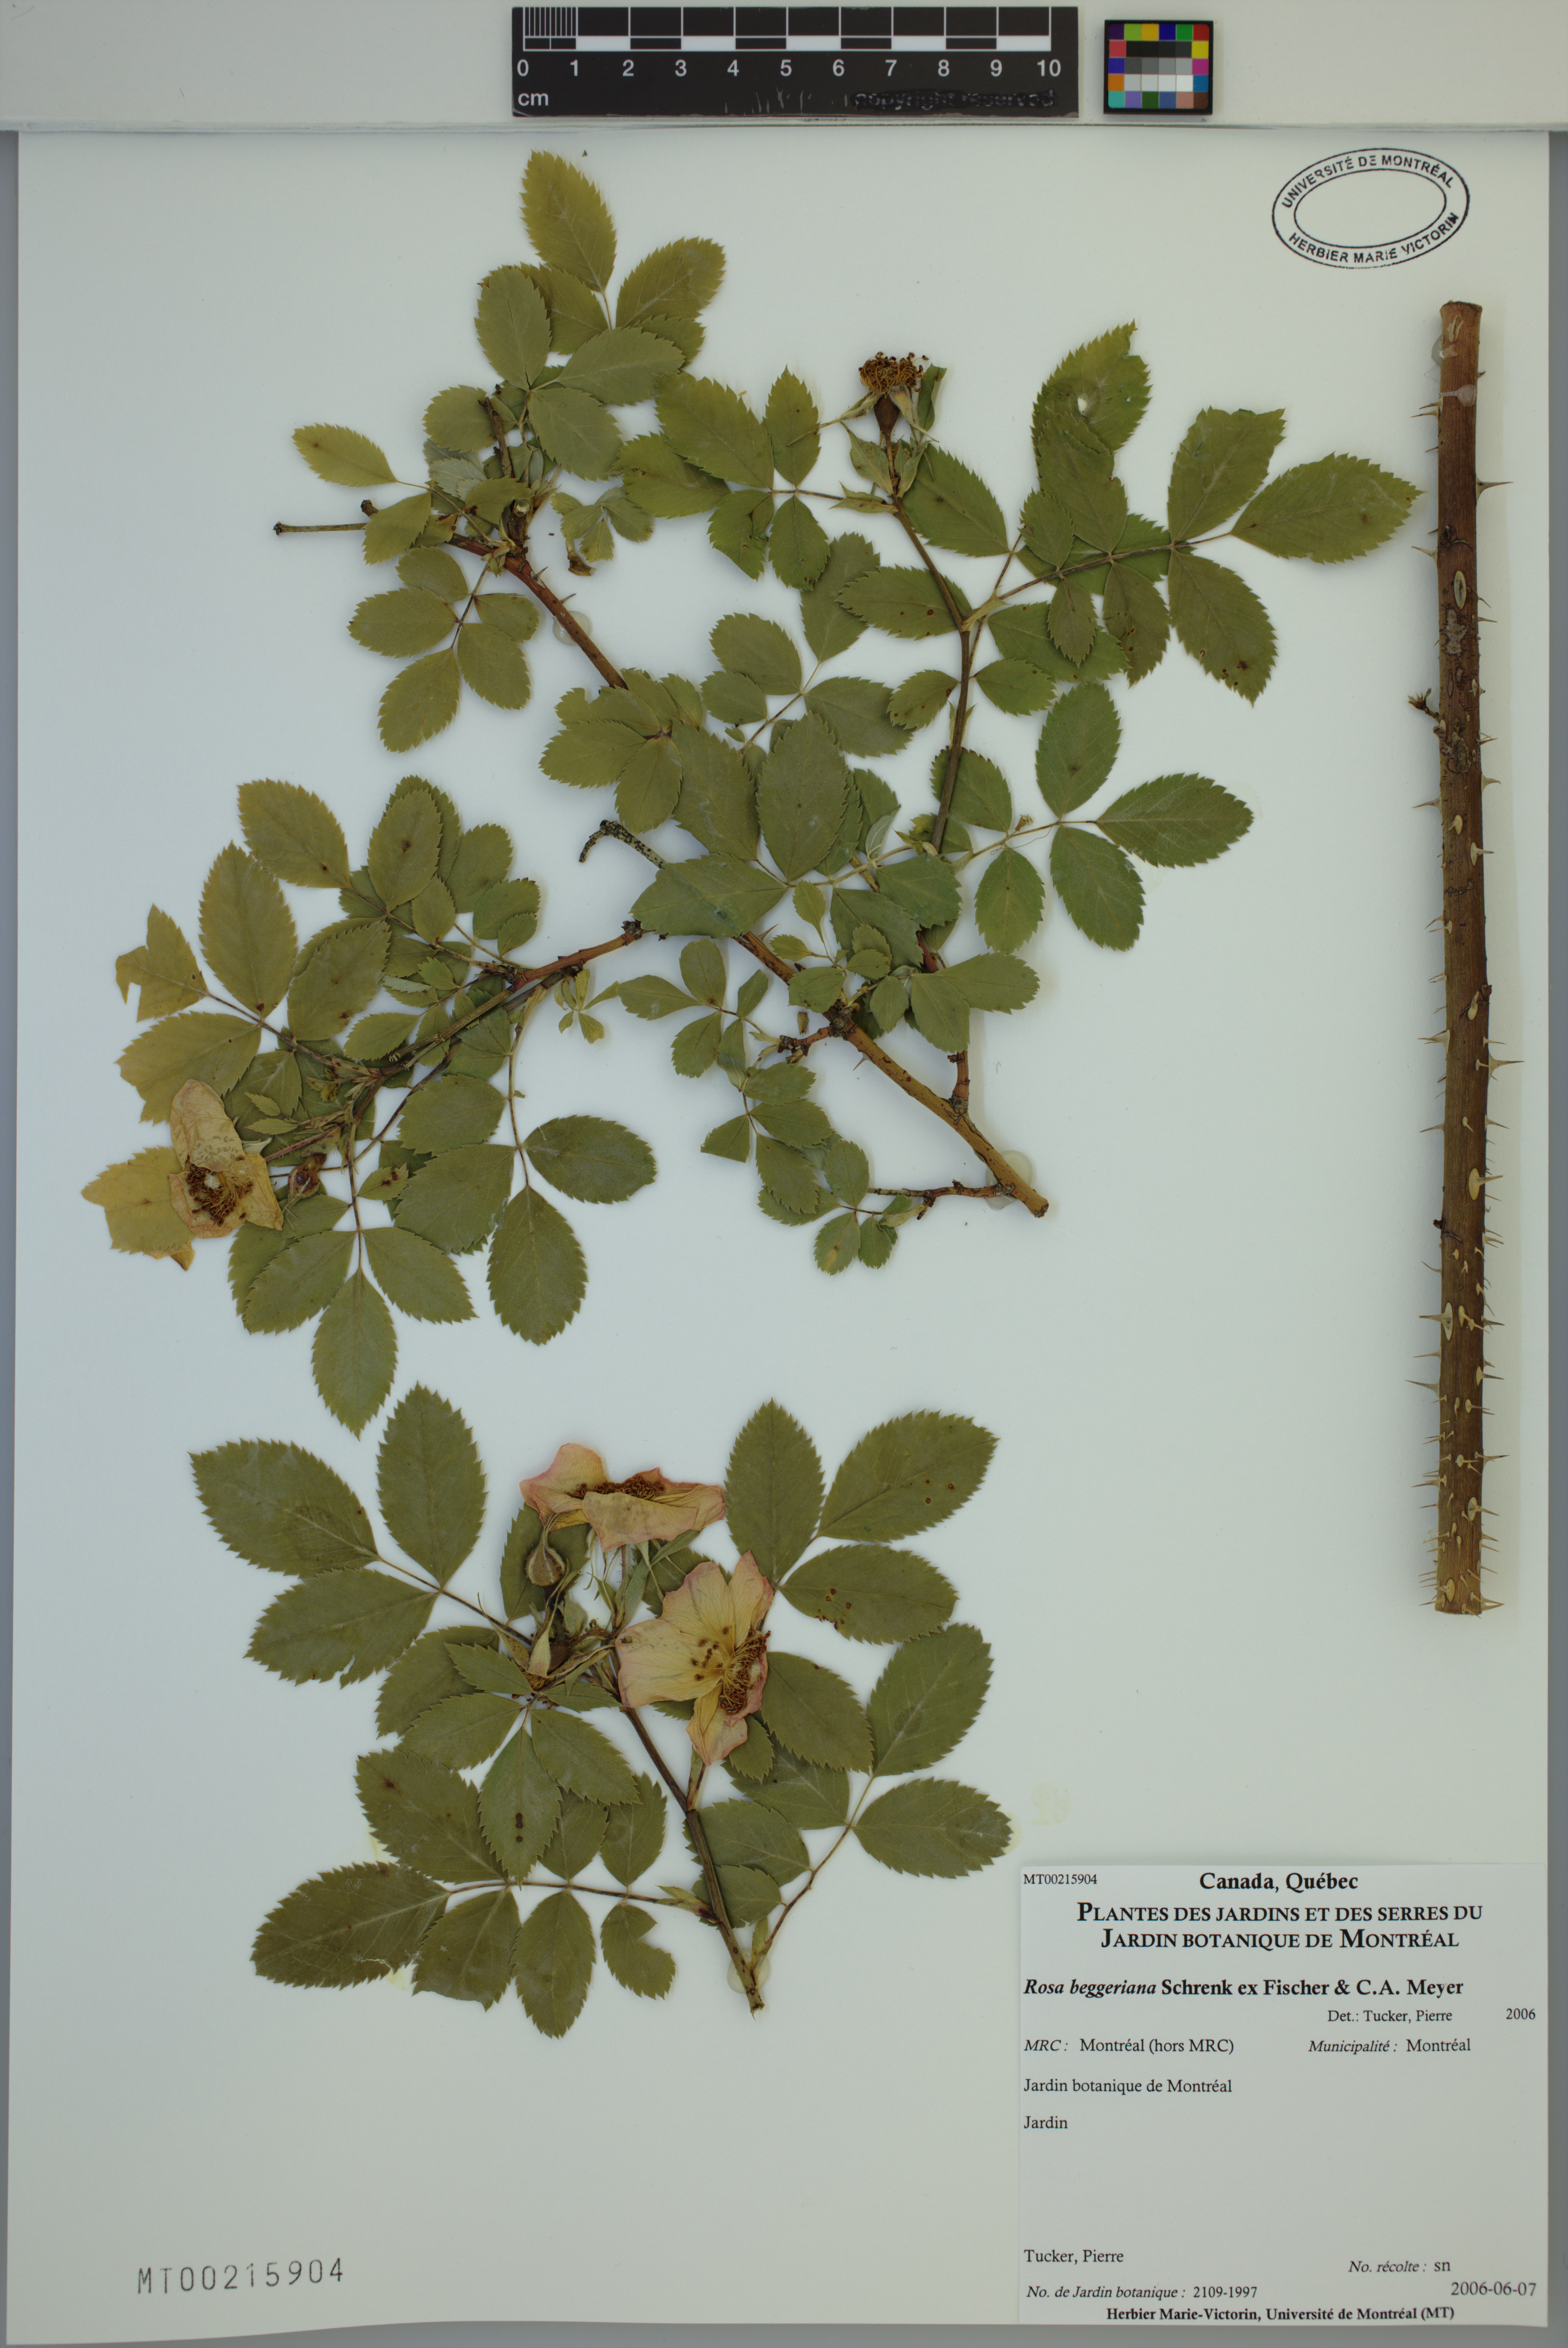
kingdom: Plantae
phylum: Tracheophyta
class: Magnoliopsida
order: Rosales
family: Rosaceae
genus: Rosa
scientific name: Rosa beggeriana
